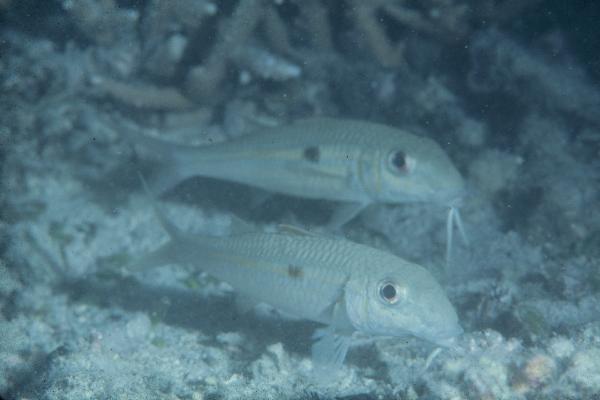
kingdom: Animalia
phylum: Chordata
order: Perciformes
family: Mullidae
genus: Mulloidichthys
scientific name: Mulloidichthys flavolineatus
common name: Yellowstripe goatfish
